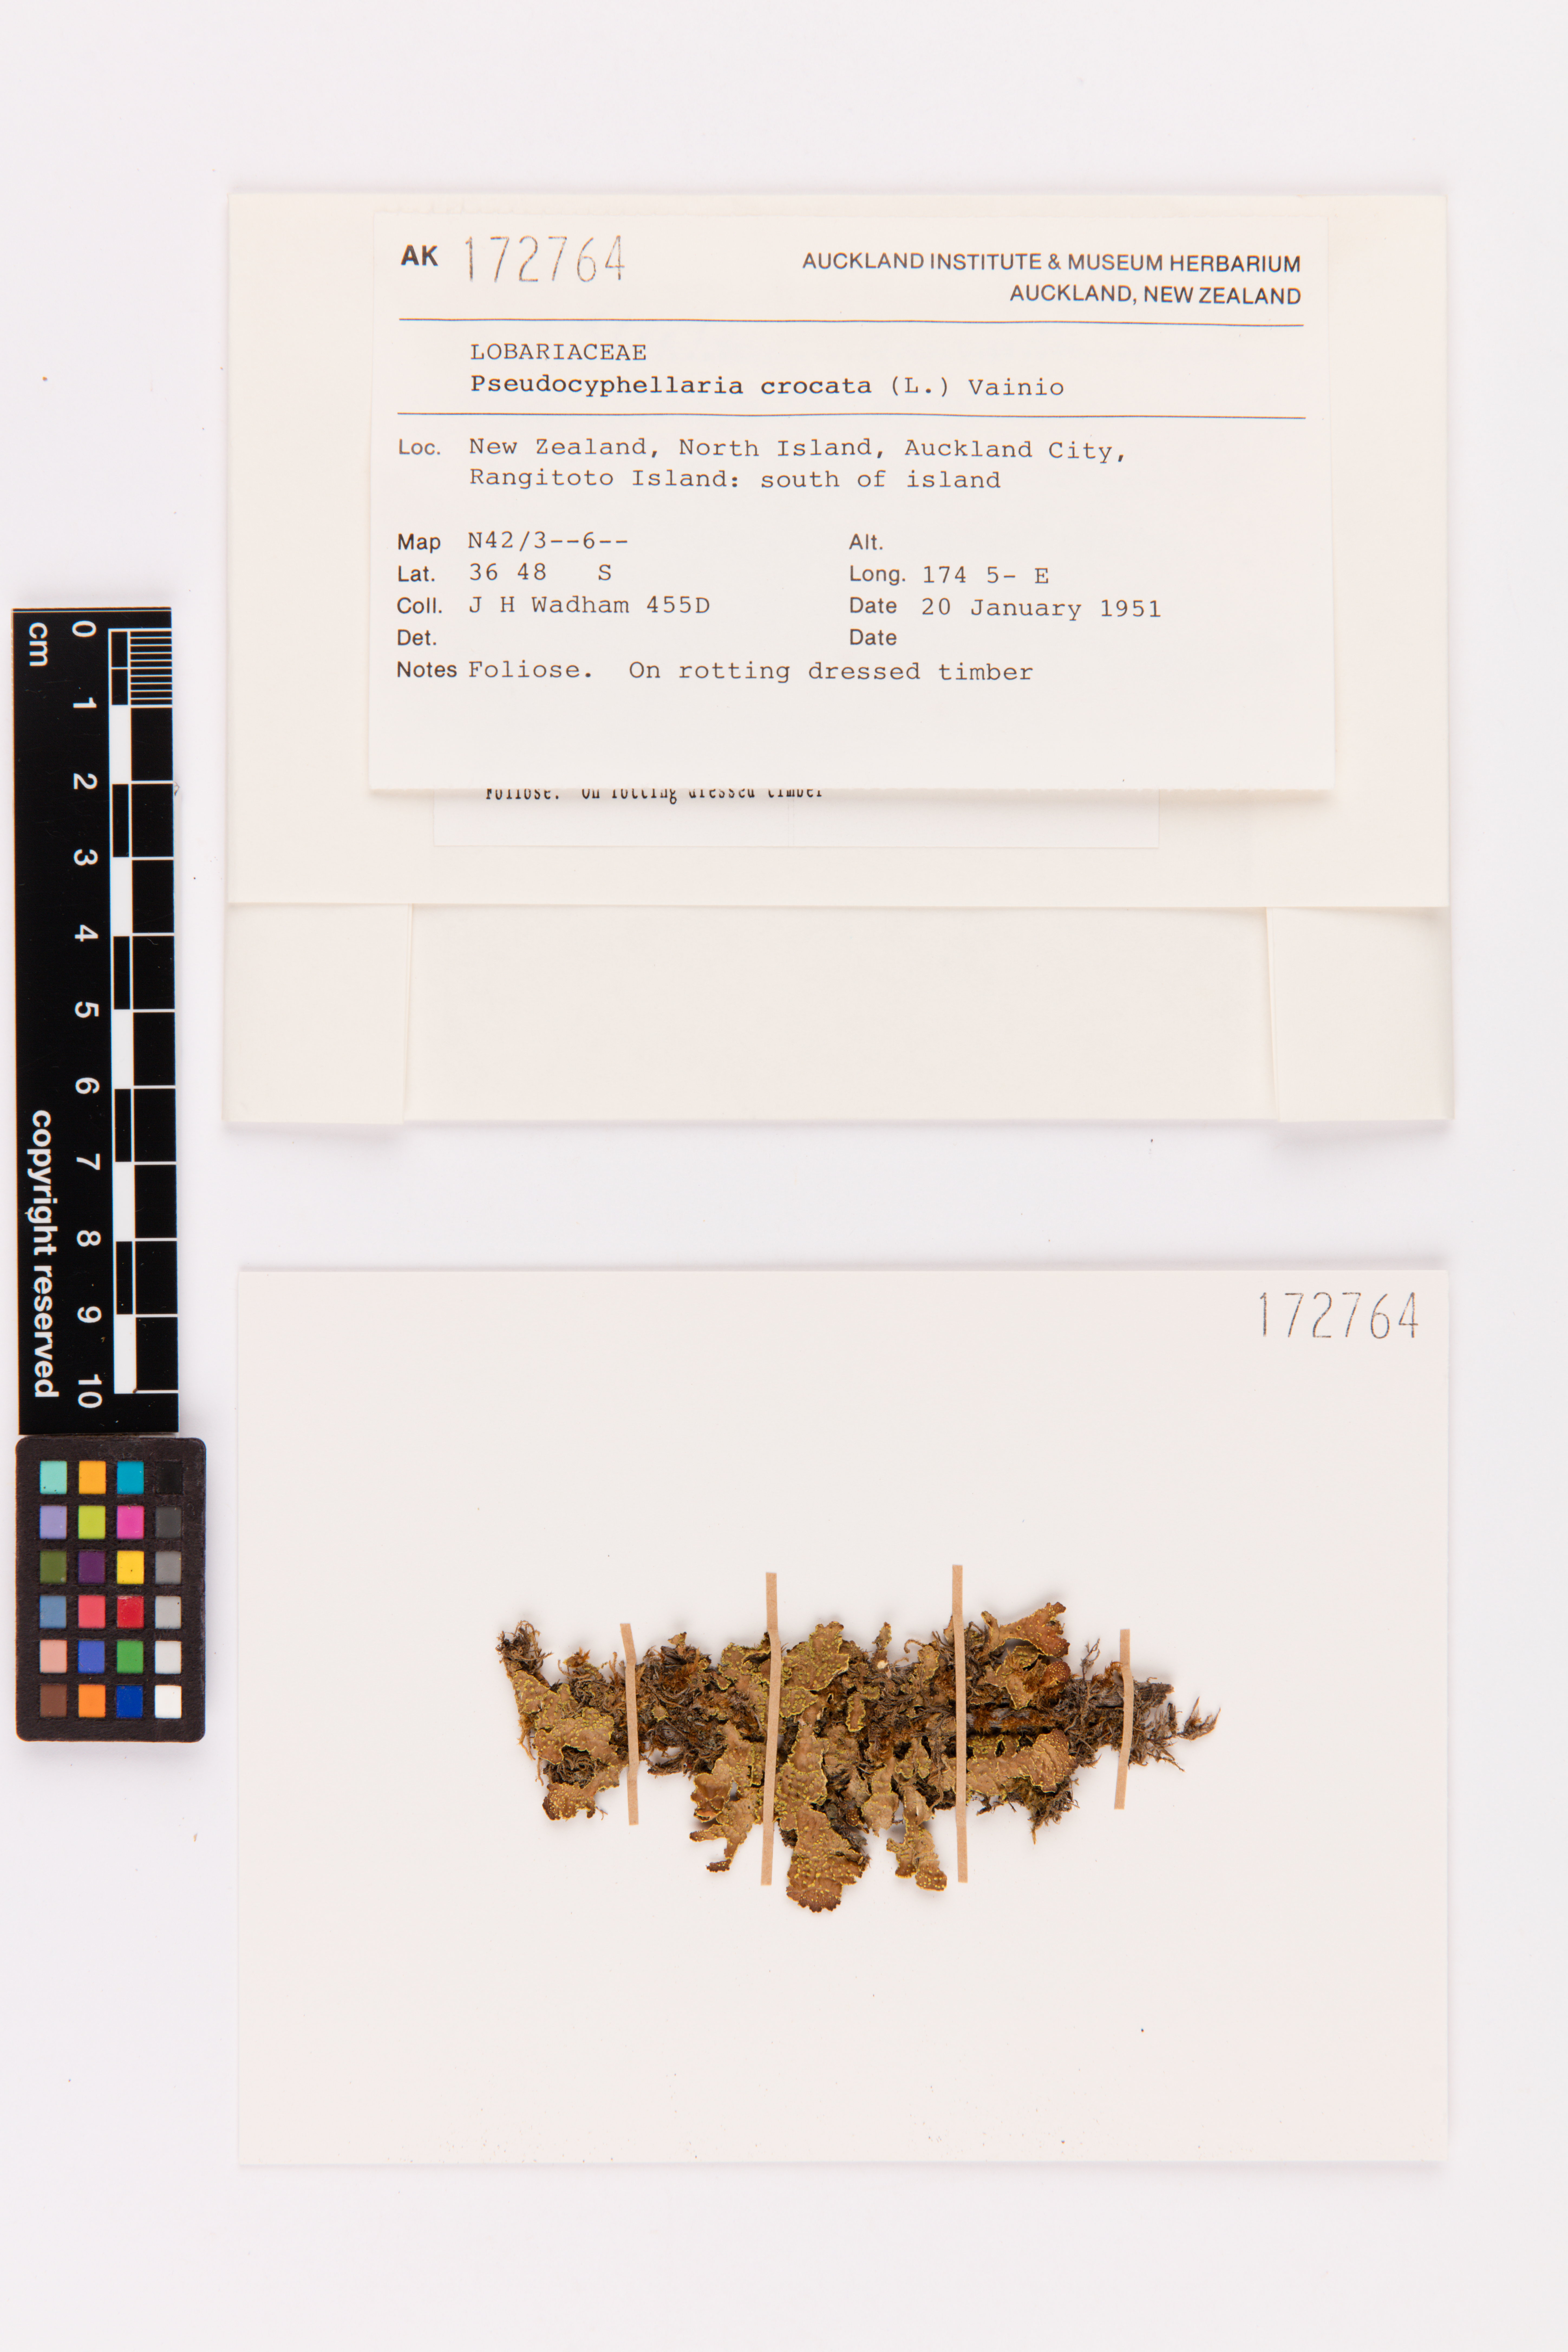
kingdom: Fungi
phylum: Ascomycota
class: Lecanoromycetes
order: Peltigerales
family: Lobariaceae
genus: Pseudocyphellaria
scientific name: Pseudocyphellaria crocata
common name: Golden specklebelly
